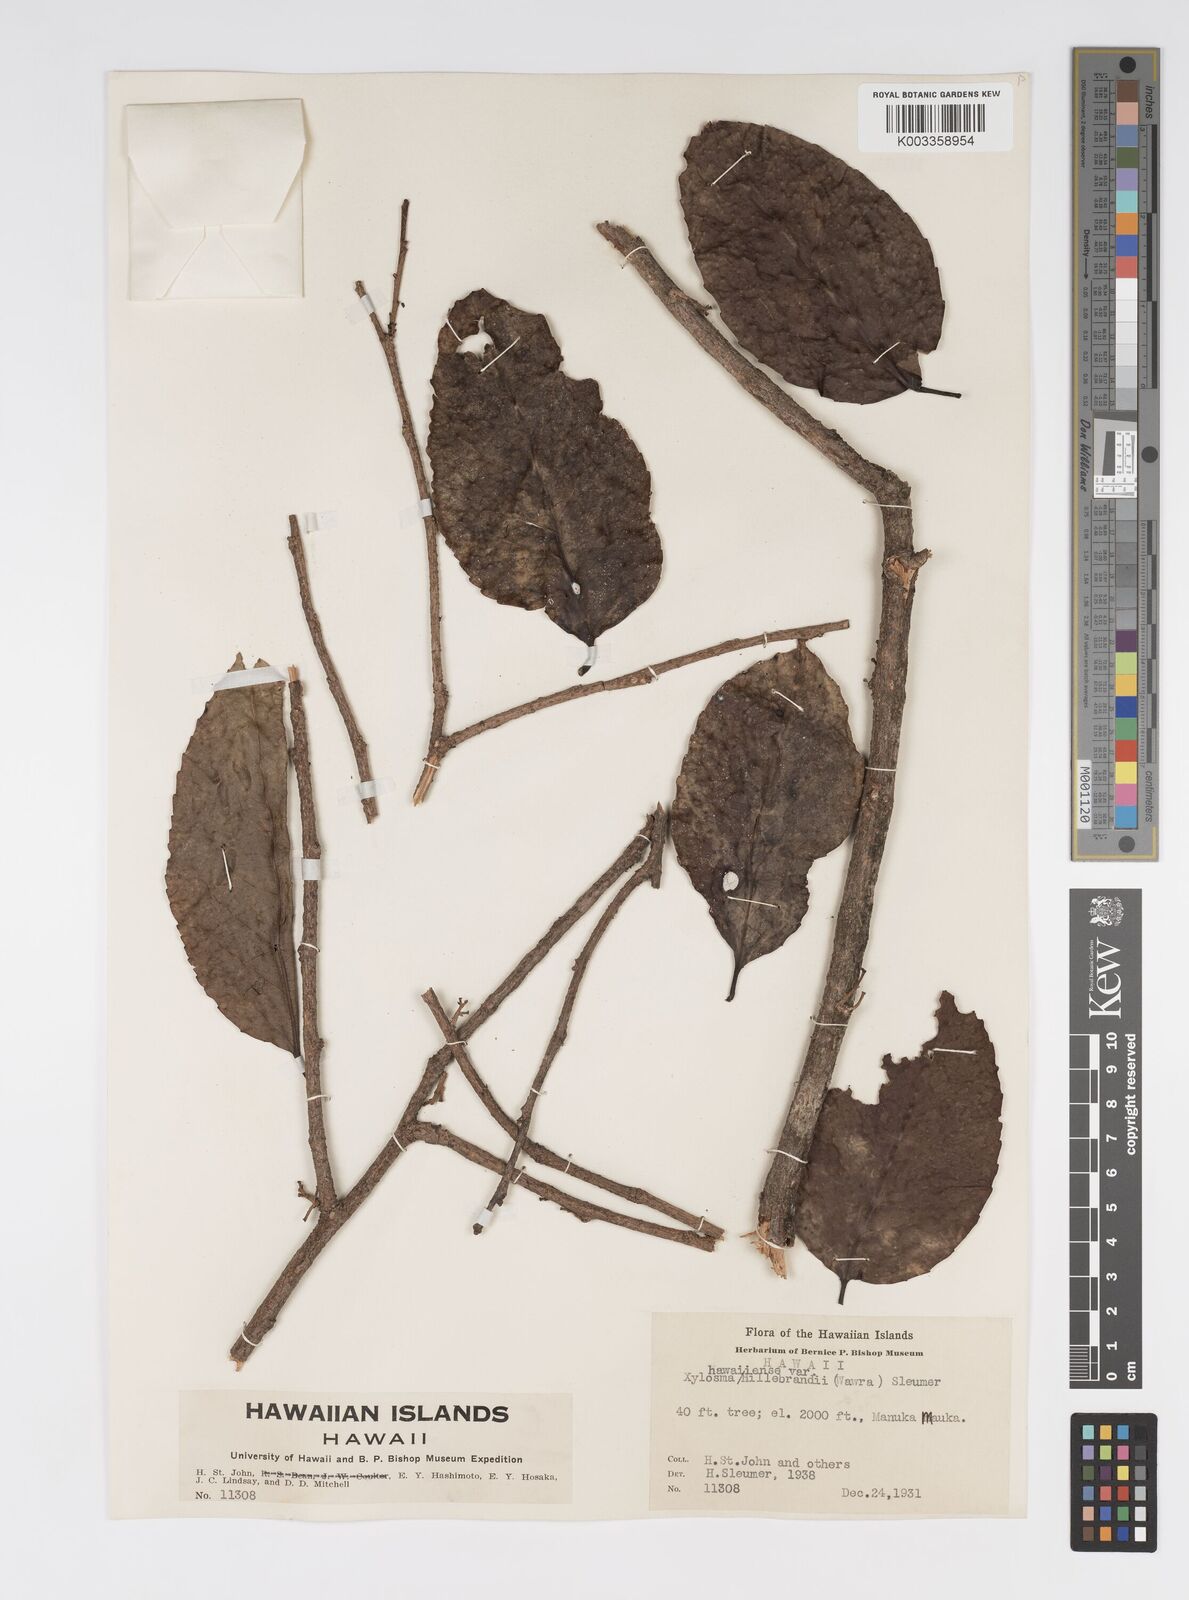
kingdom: Plantae
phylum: Tracheophyta
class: Magnoliopsida
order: Malpighiales
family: Salicaceae
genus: Xylosma
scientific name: Xylosma hawaiense
